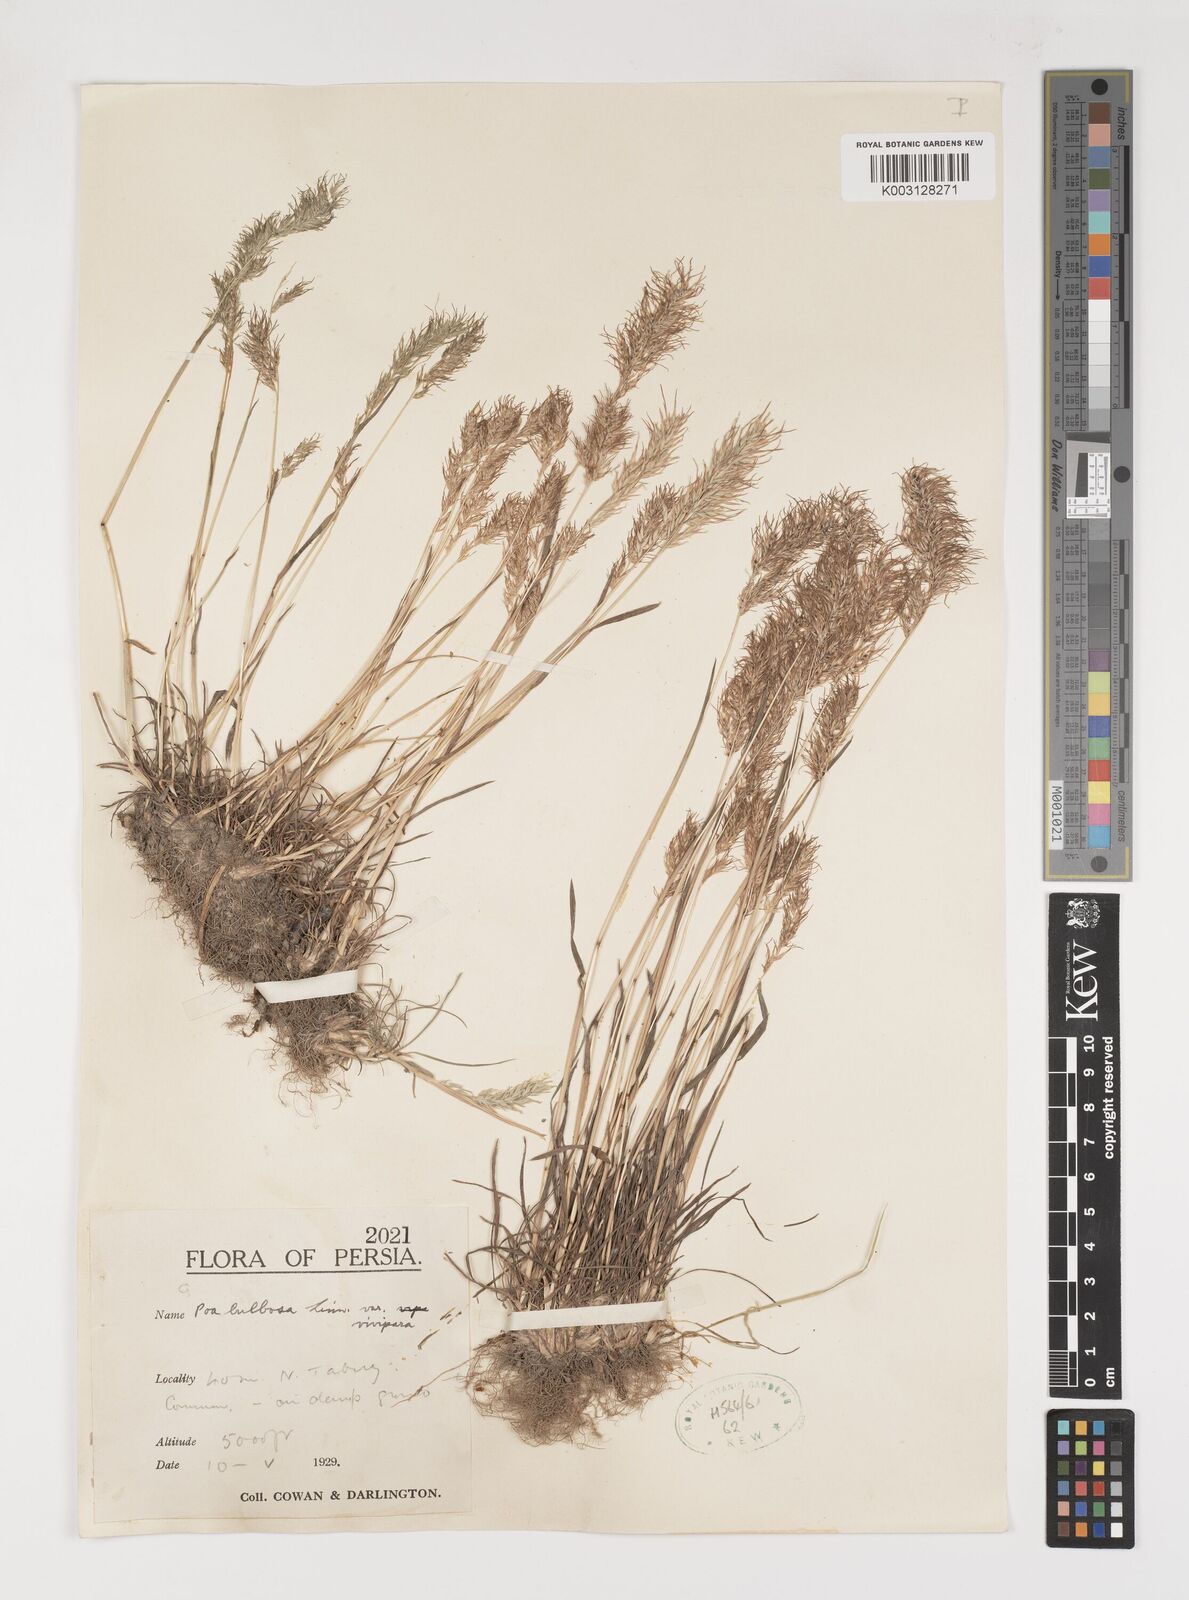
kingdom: Plantae
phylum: Tracheophyta
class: Liliopsida
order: Poales
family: Poaceae
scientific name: Poaceae
